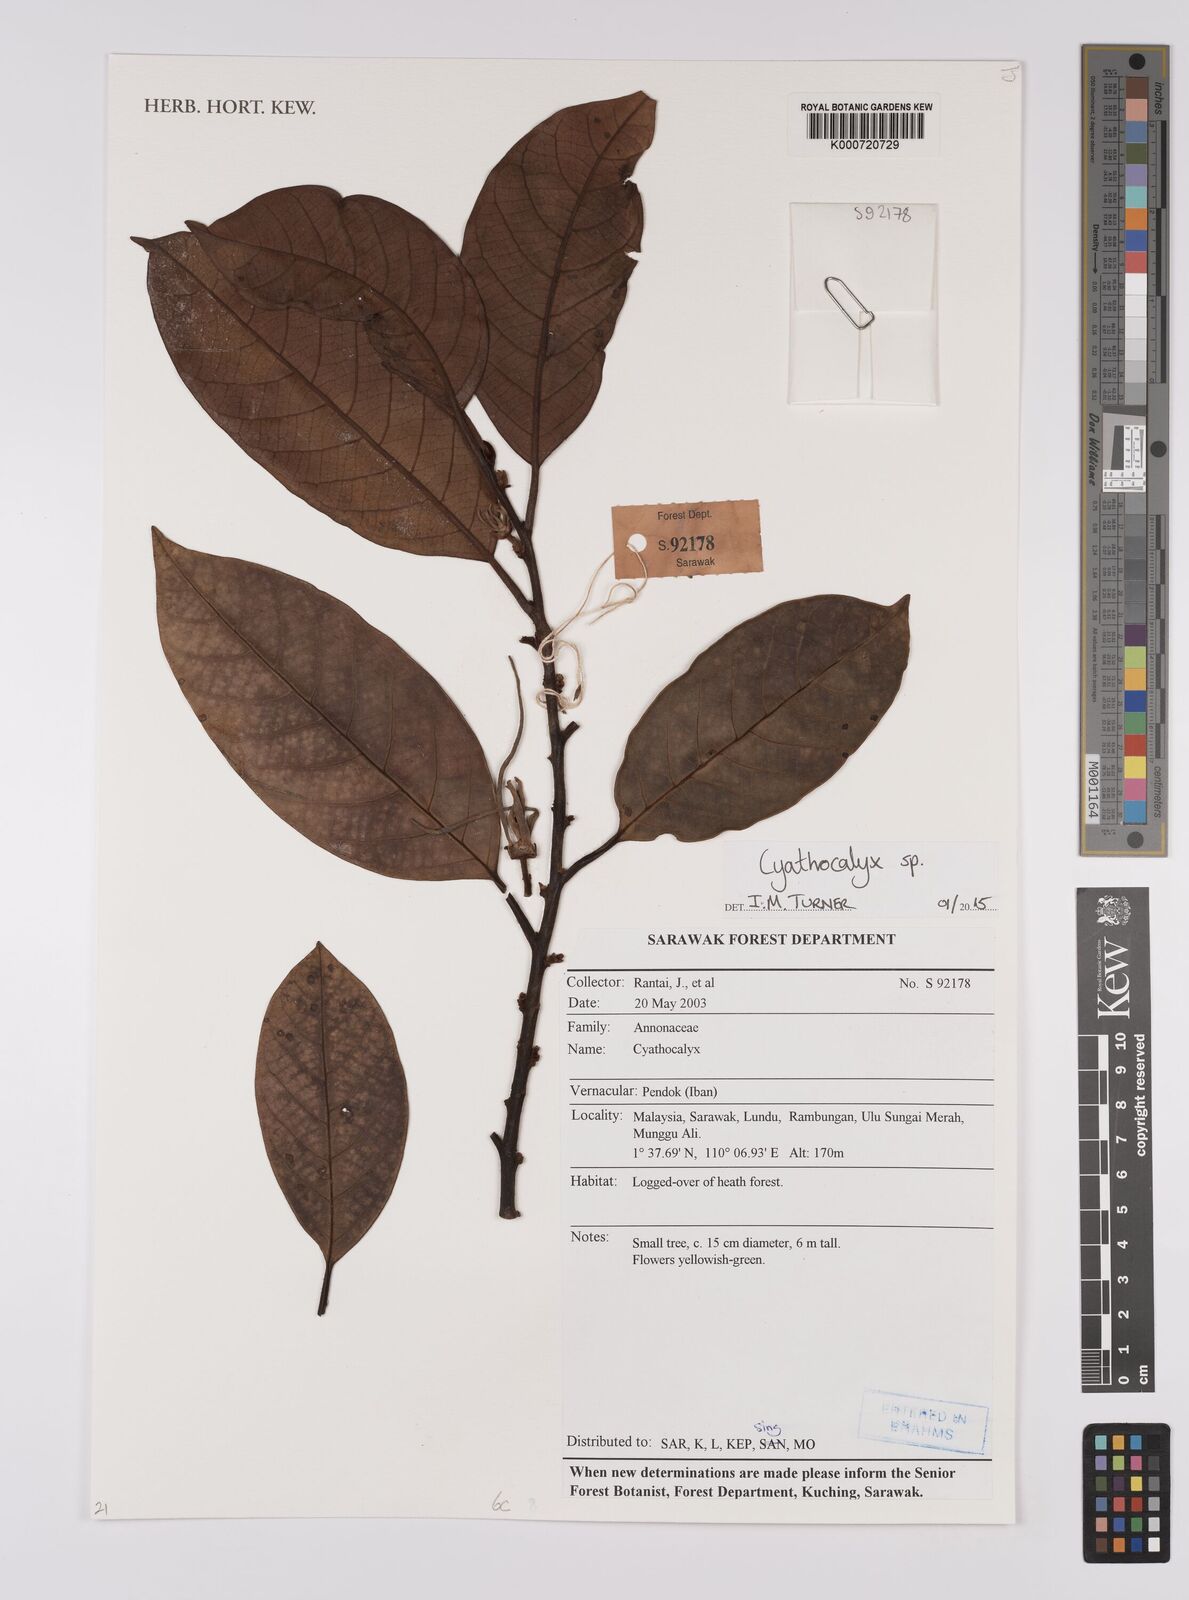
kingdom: Plantae
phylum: Tracheophyta
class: Magnoliopsida
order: Magnoliales
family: Annonaceae
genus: Cyathocalyx
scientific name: Cyathocalyx
